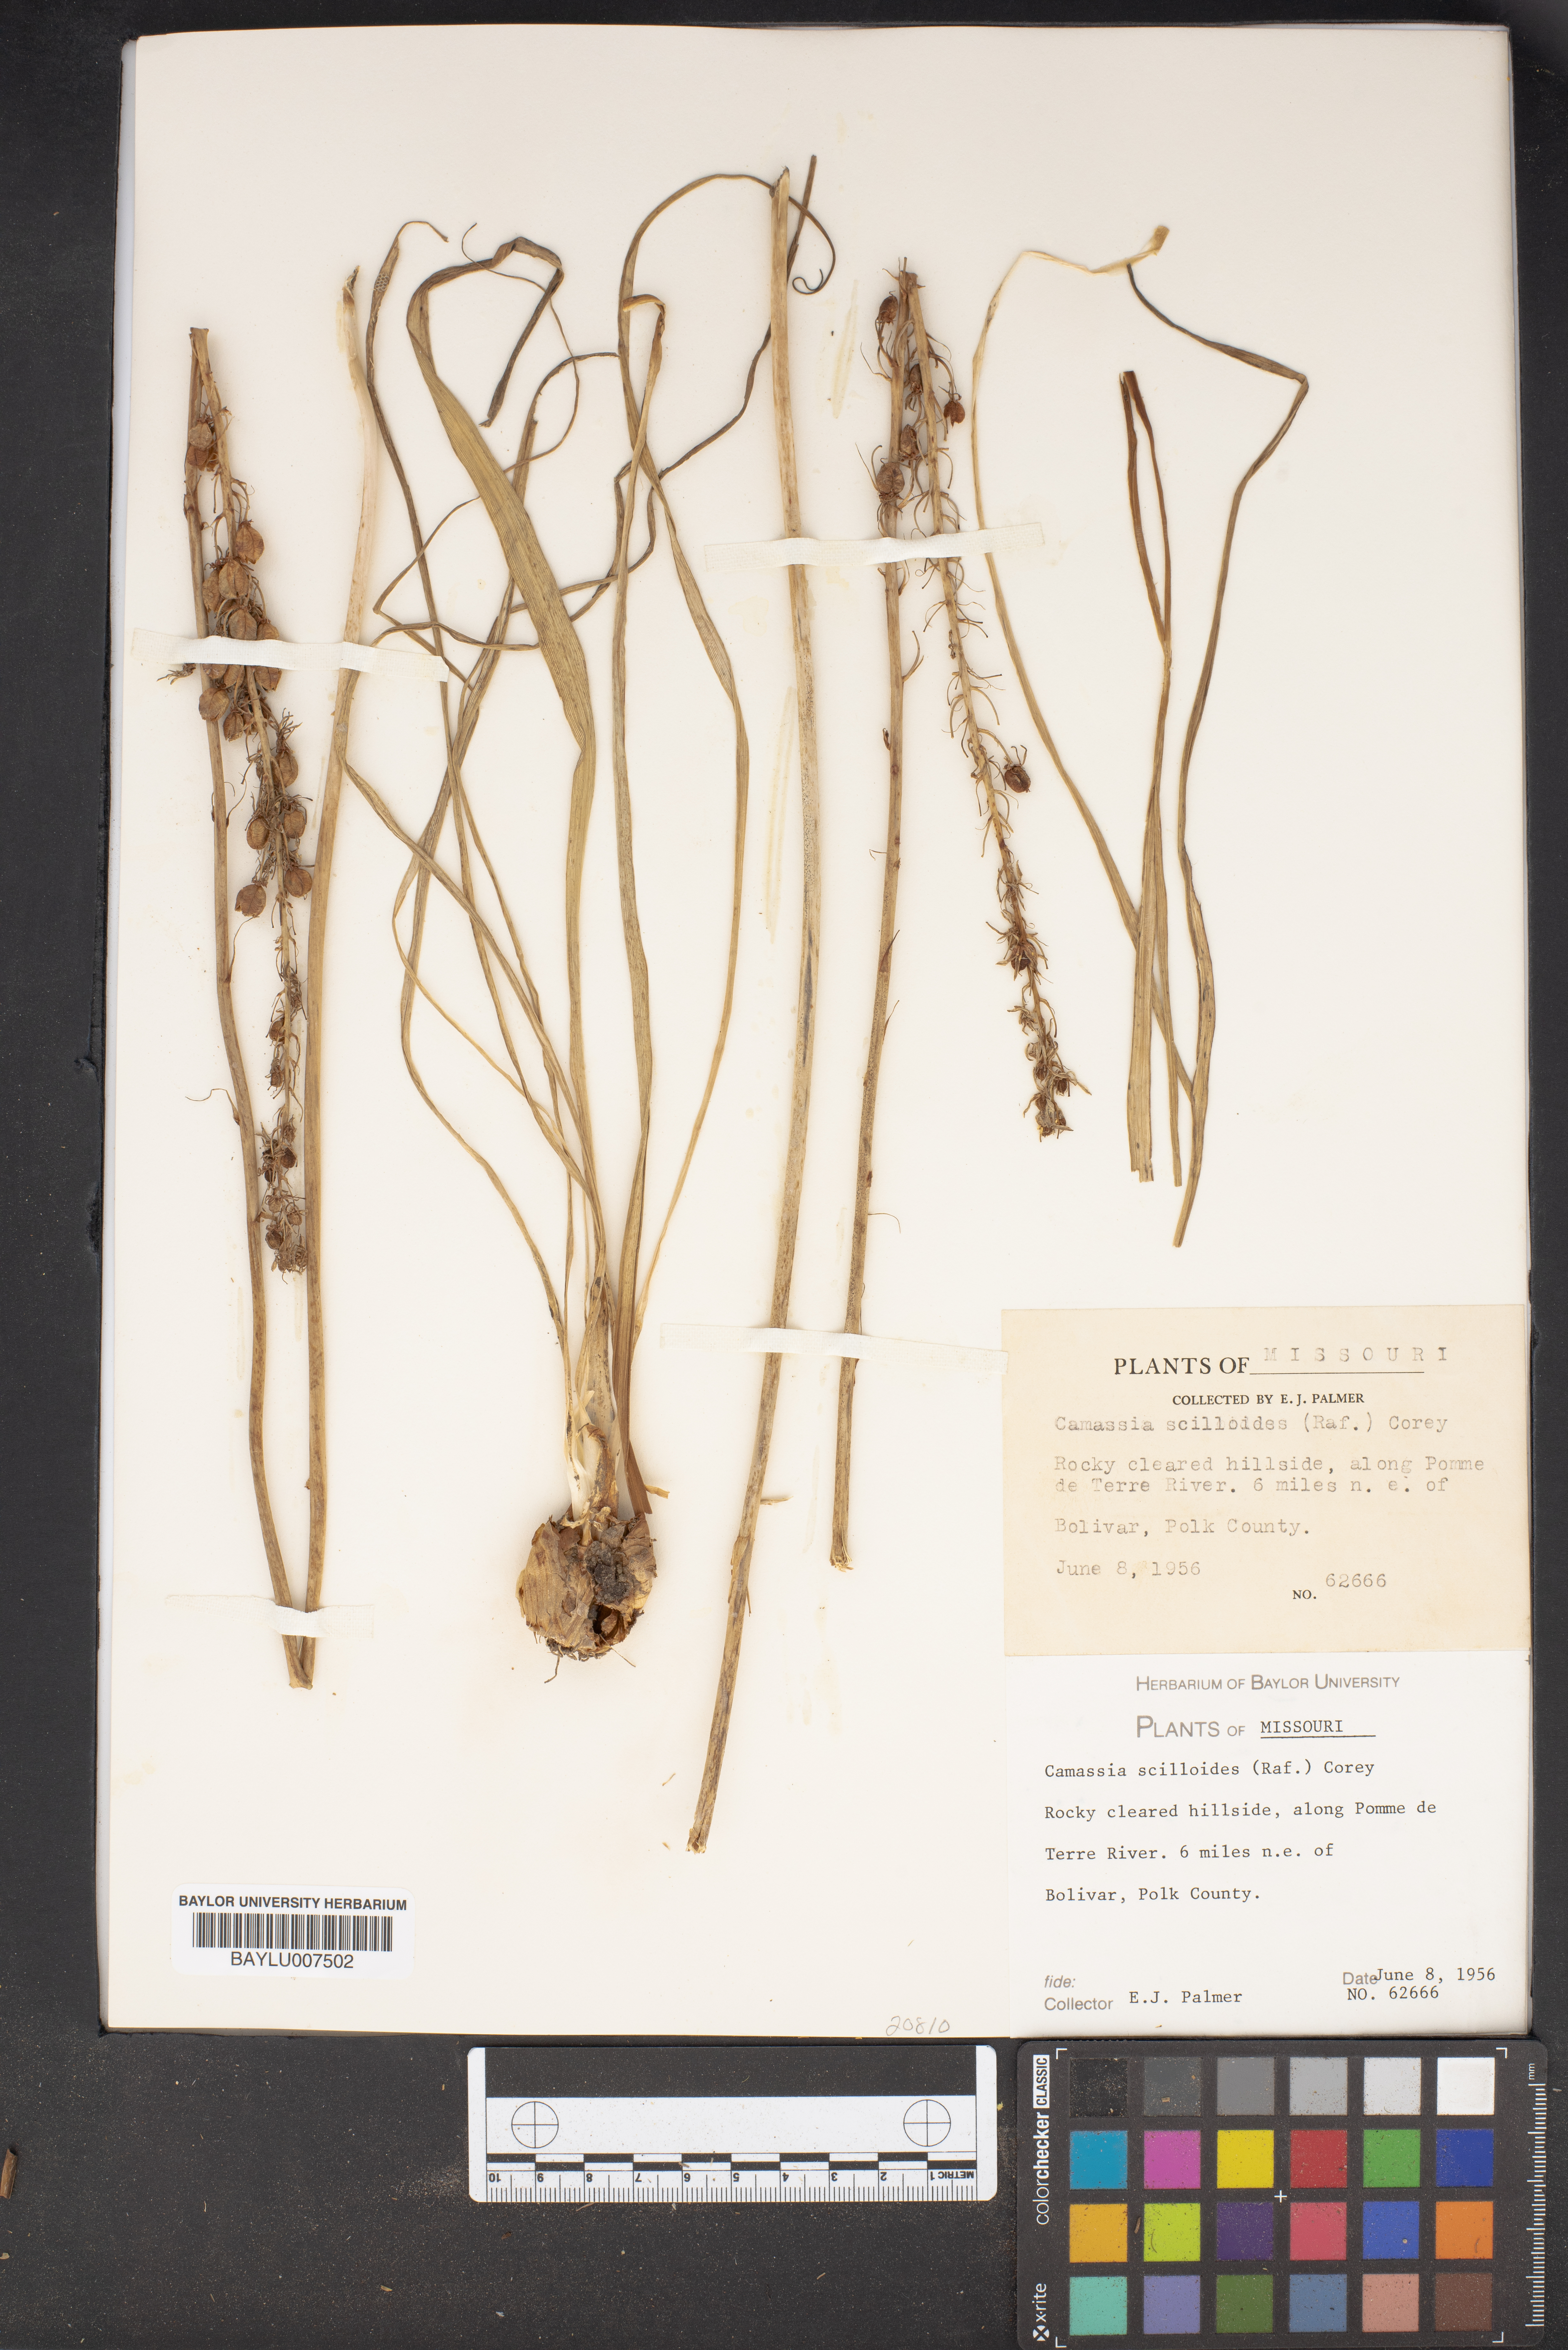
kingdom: Plantae
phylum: Tracheophyta
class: Liliopsida
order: Asparagales
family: Asparagaceae
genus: Camassia
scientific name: Camassia scilloides
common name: Wild hyacinth
